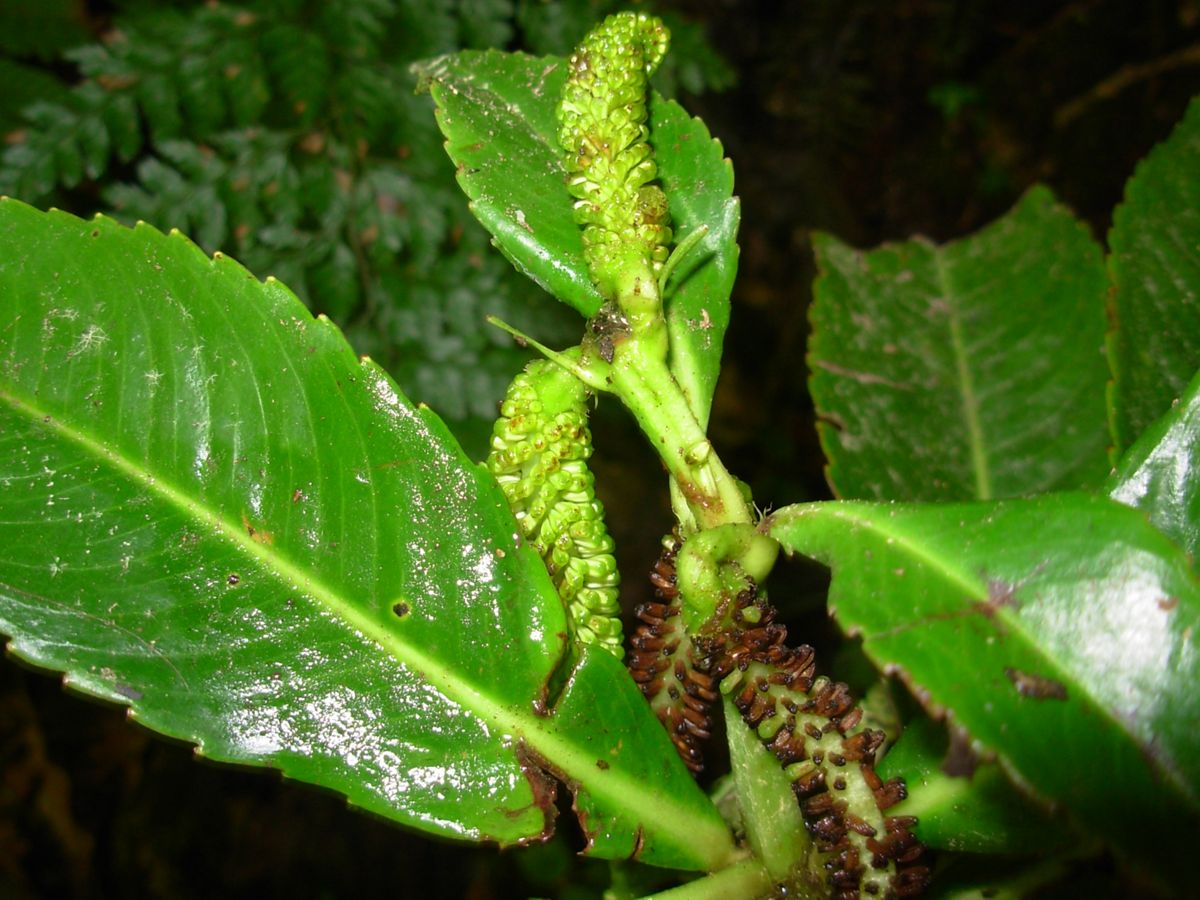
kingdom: Plantae
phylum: Tracheophyta
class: Magnoliopsida
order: Chloranthales
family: Chloranthaceae
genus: Hedyosmum
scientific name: Hedyosmum mexicanum
